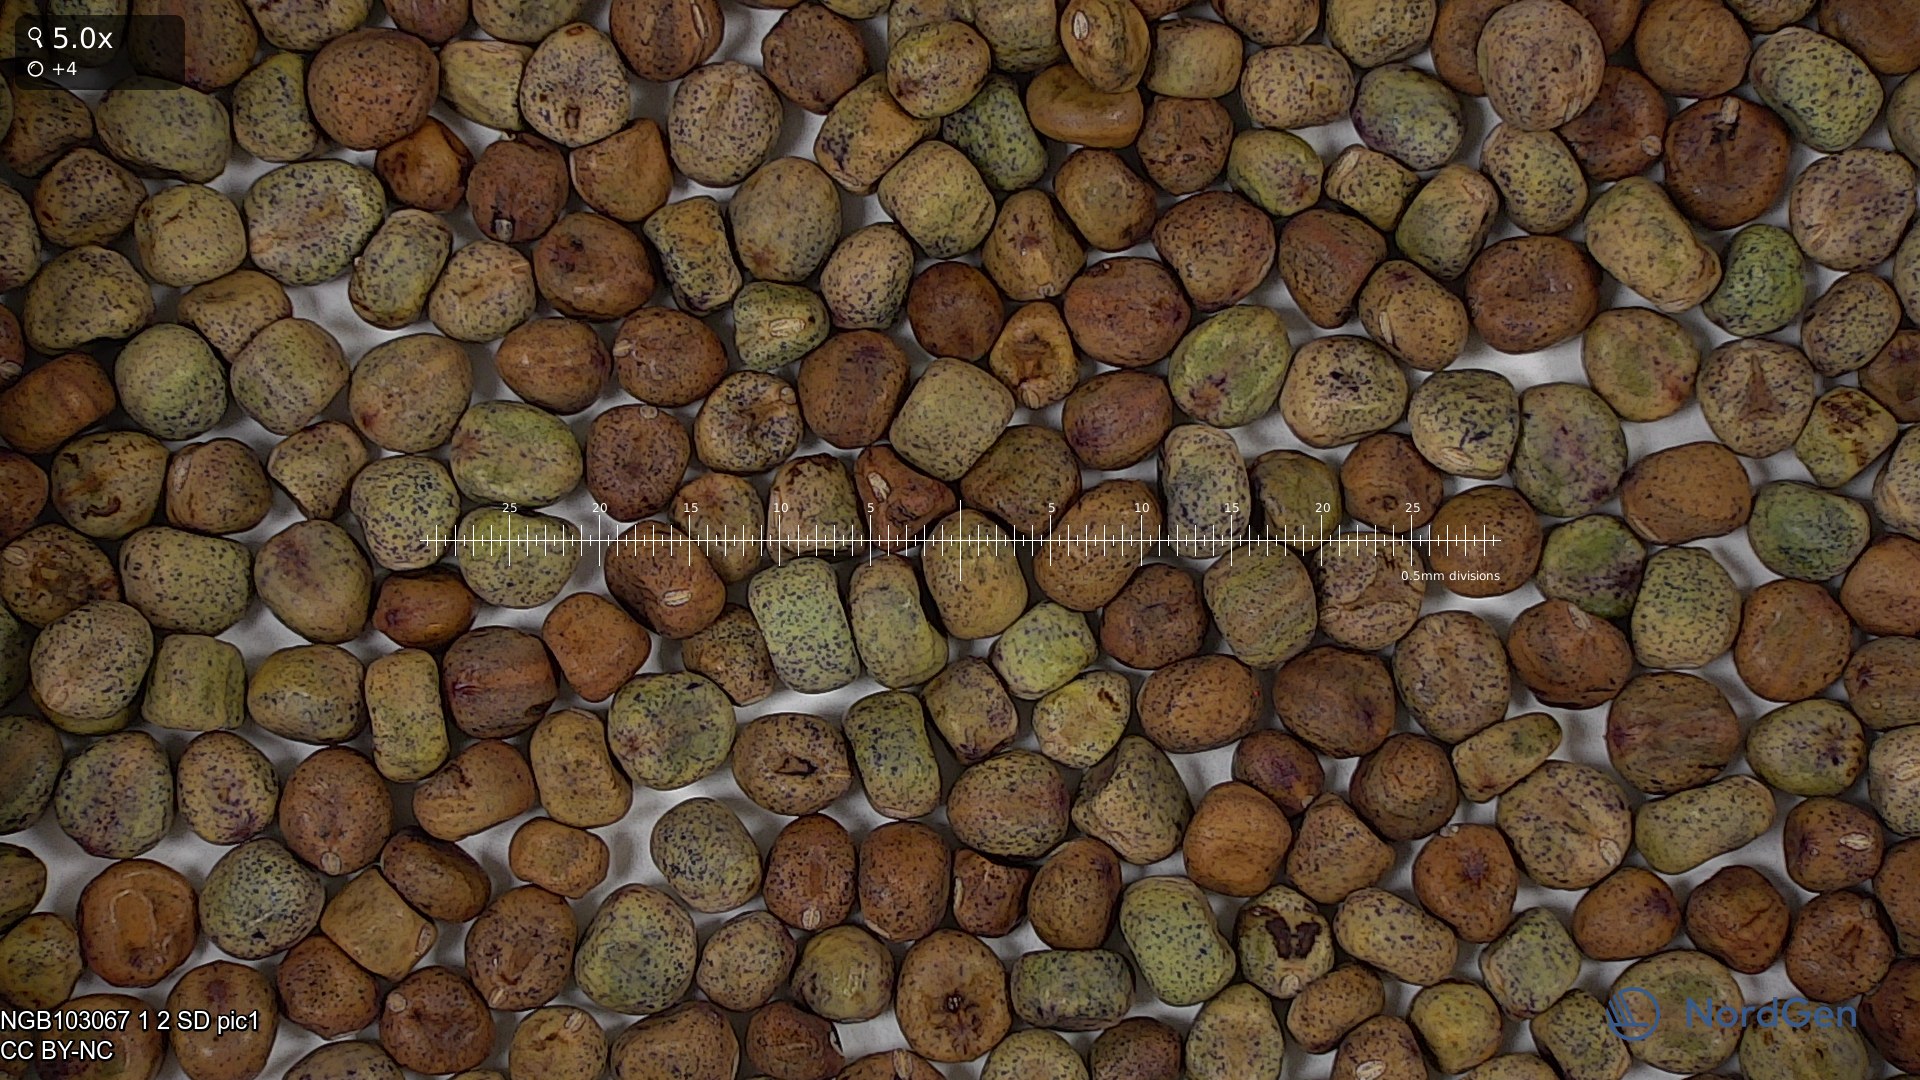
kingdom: Plantae
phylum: Tracheophyta
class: Magnoliopsida
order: Fabales
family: Fabaceae
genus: Lathyrus
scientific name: Lathyrus oleraceus
